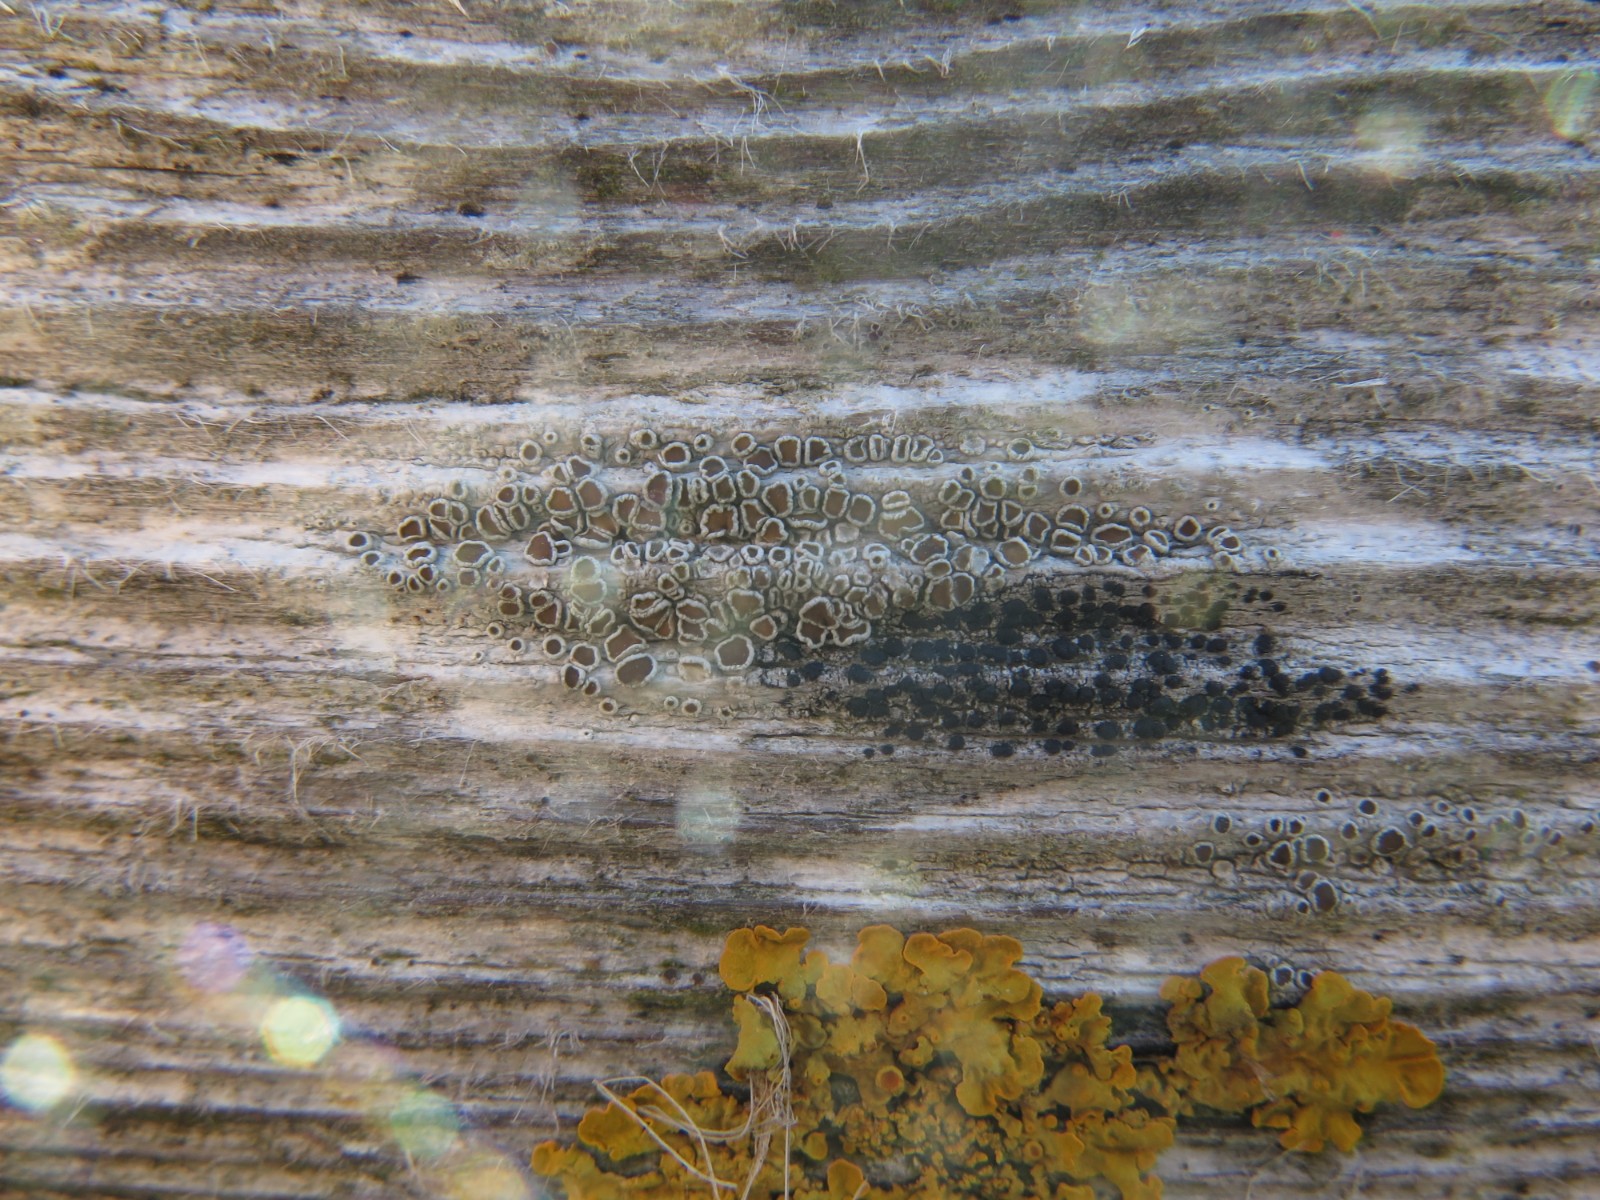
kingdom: Fungi
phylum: Ascomycota
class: Lecanoromycetes
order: Lecanorales
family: Lecanoraceae
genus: Lecanora
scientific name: Lecanora chlarotera
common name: brun kantskivelav
